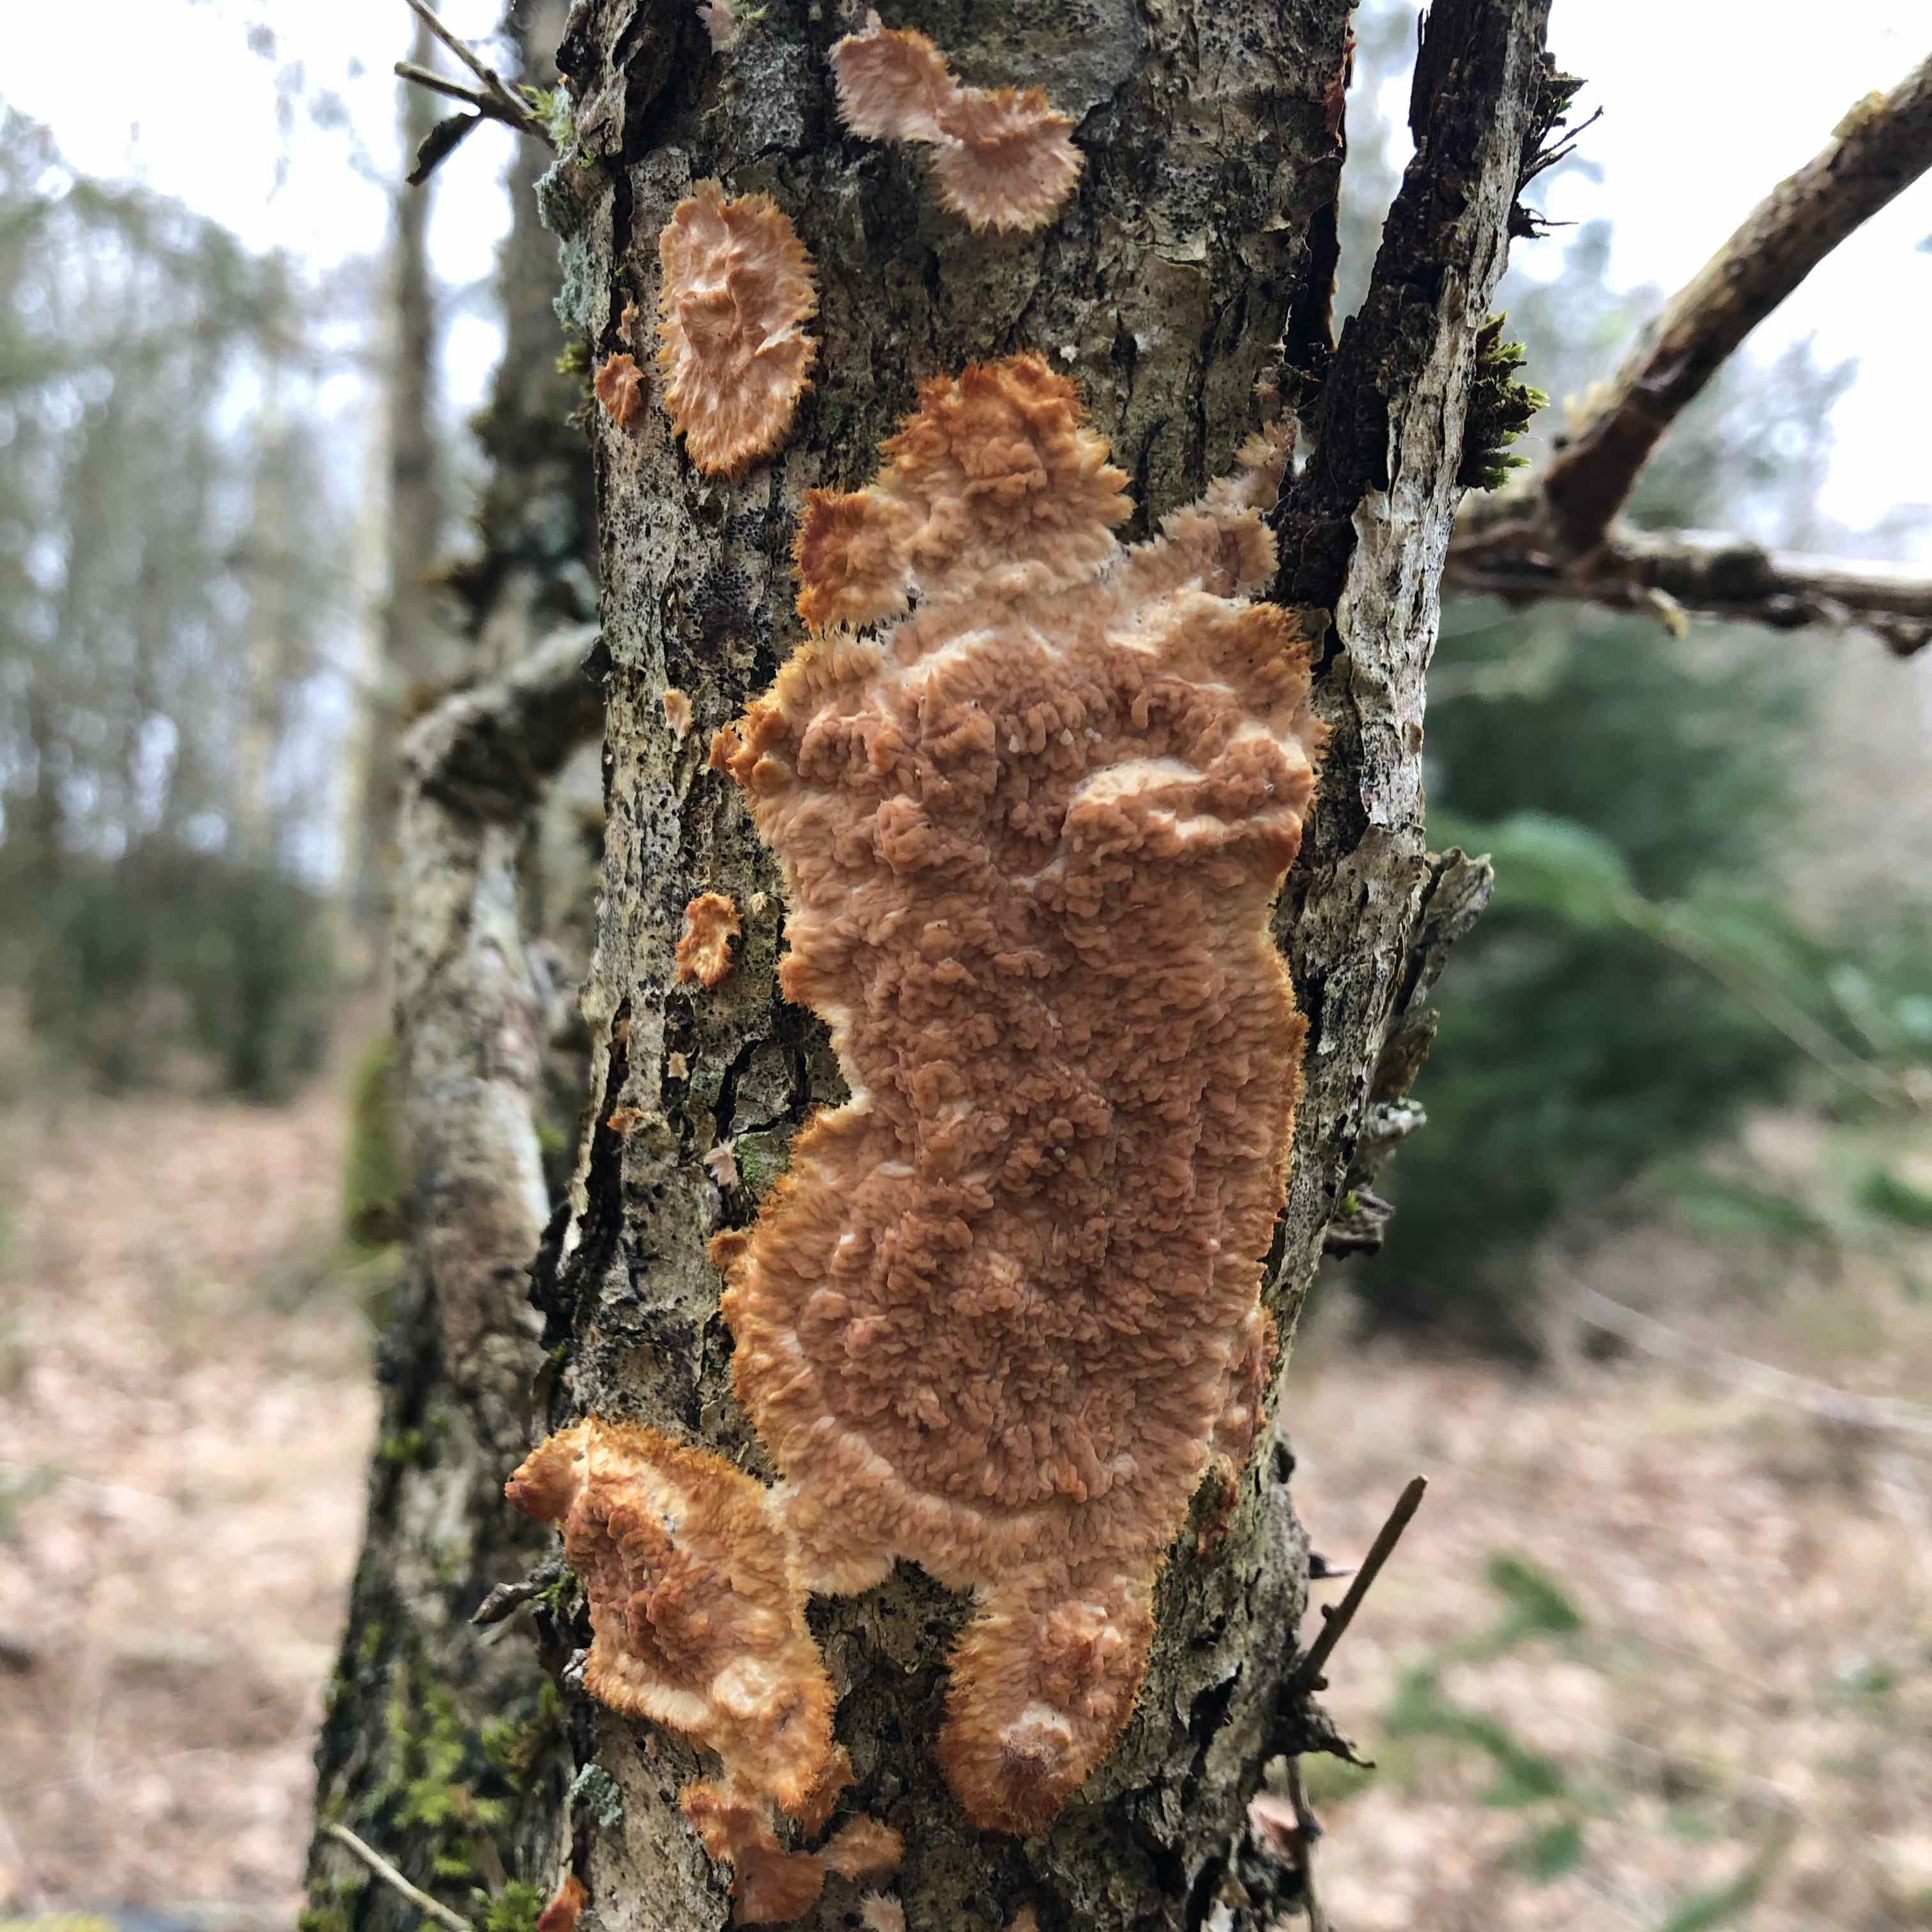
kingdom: Fungi
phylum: Basidiomycota
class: Agaricomycetes
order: Polyporales
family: Meruliaceae
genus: Phlebia
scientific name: Phlebia radiata
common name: stråle-åresvamp
